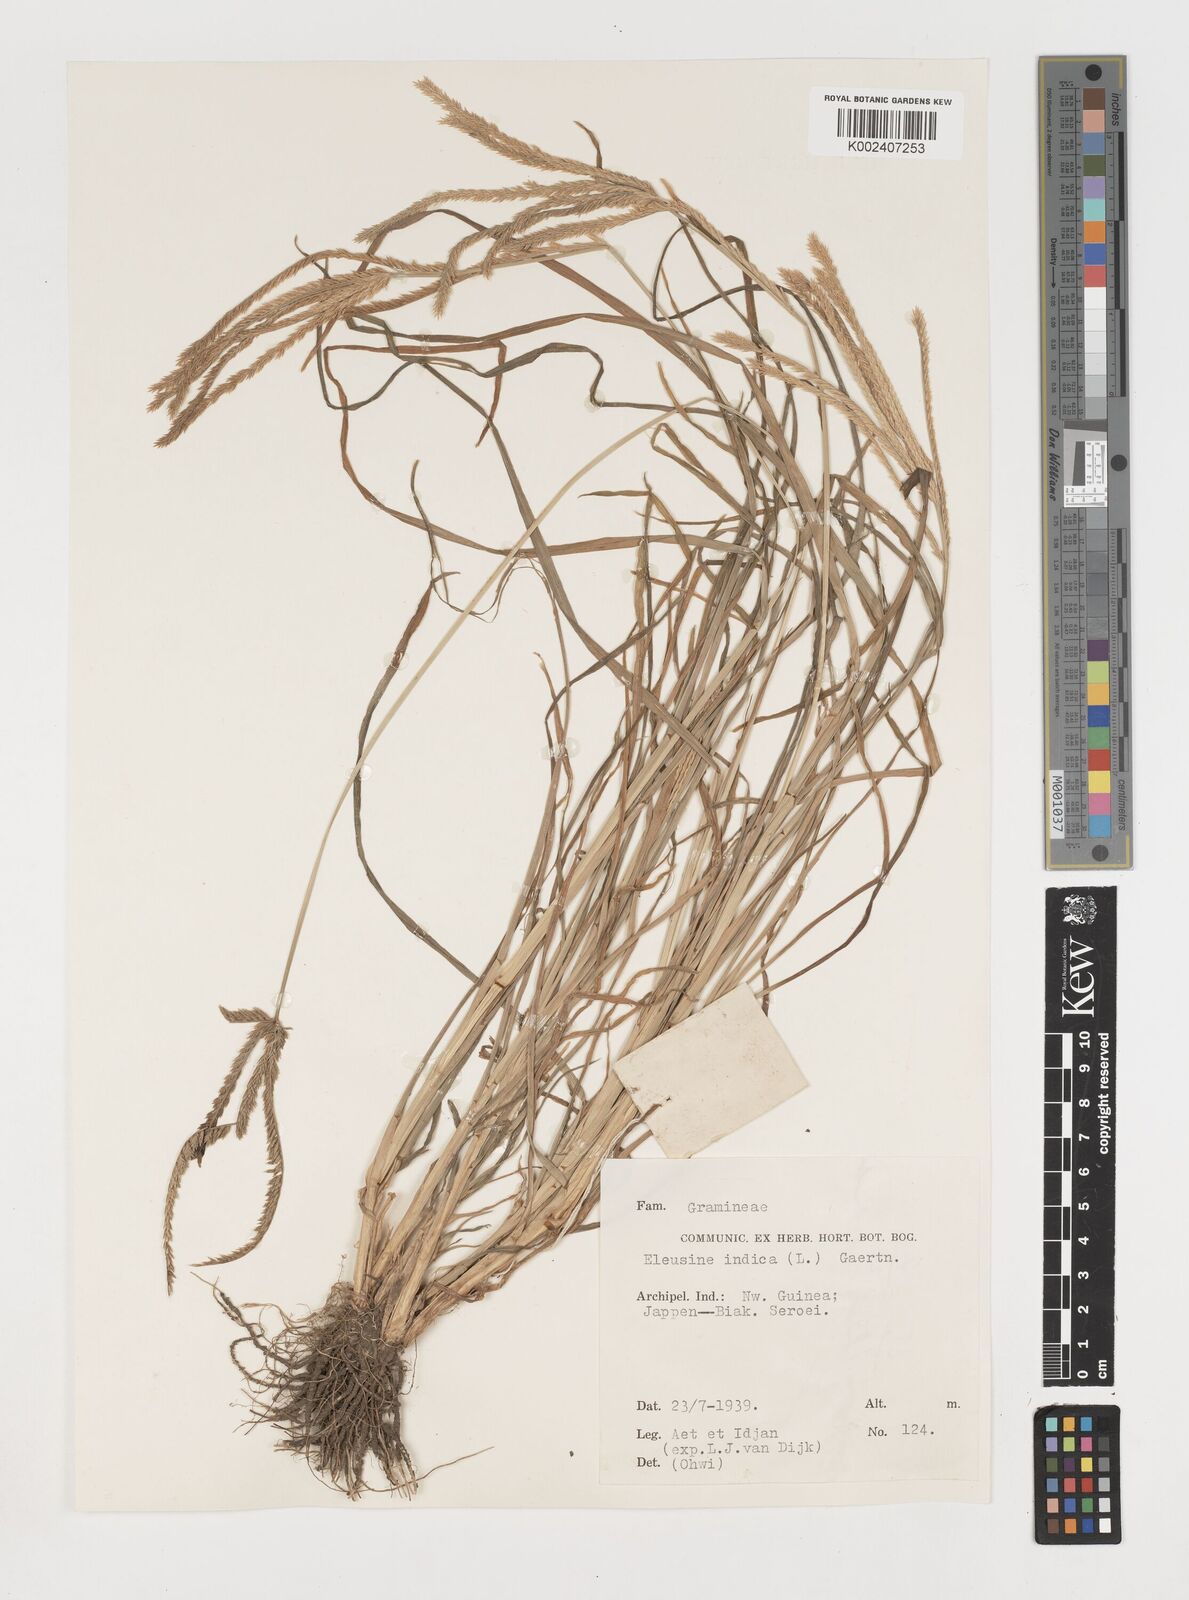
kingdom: Plantae
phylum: Tracheophyta
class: Liliopsida
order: Poales
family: Poaceae
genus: Eleusine
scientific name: Eleusine indica
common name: Yard-grass
